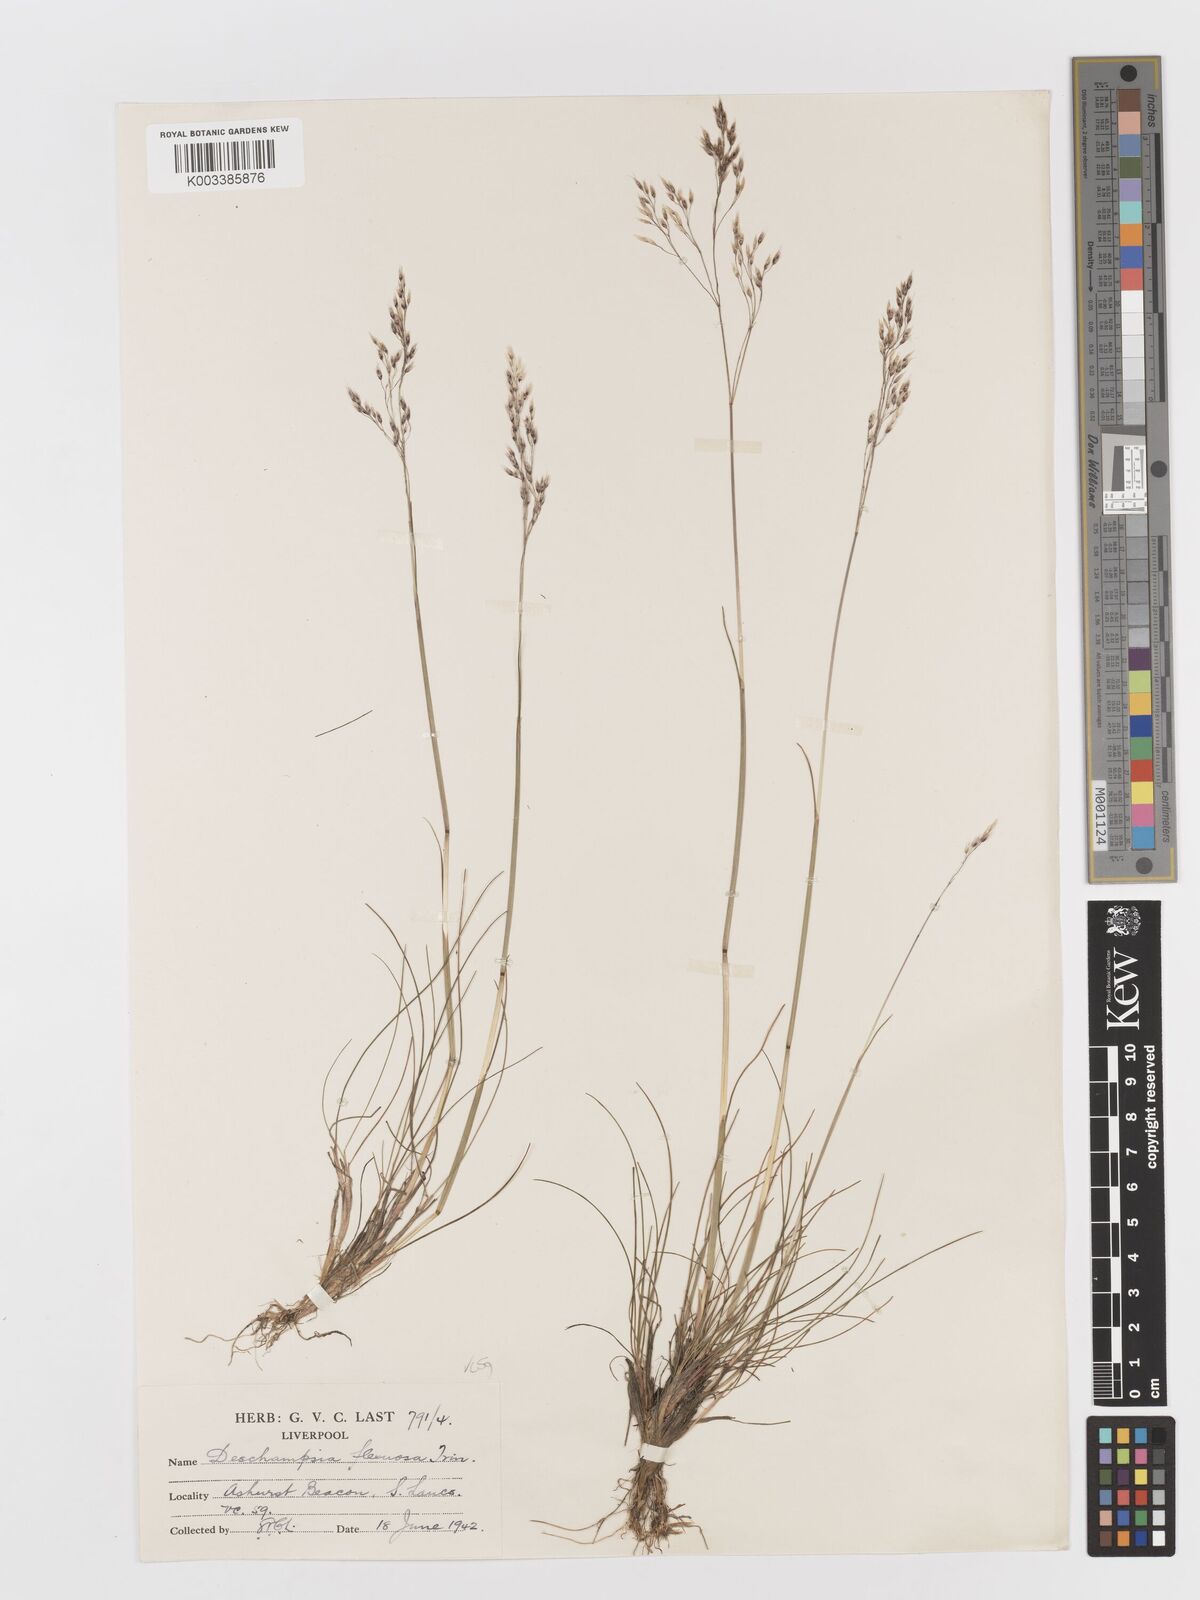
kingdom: Plantae
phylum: Tracheophyta
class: Liliopsida
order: Poales
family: Poaceae
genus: Avenella
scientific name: Avenella flexuosa
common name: Wavy hairgrass
